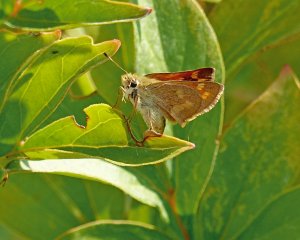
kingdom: Animalia
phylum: Arthropoda
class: Insecta
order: Lepidoptera
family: Hesperiidae
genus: Ochlodes
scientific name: Ochlodes sylvanoides
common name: Woodland Skipper
